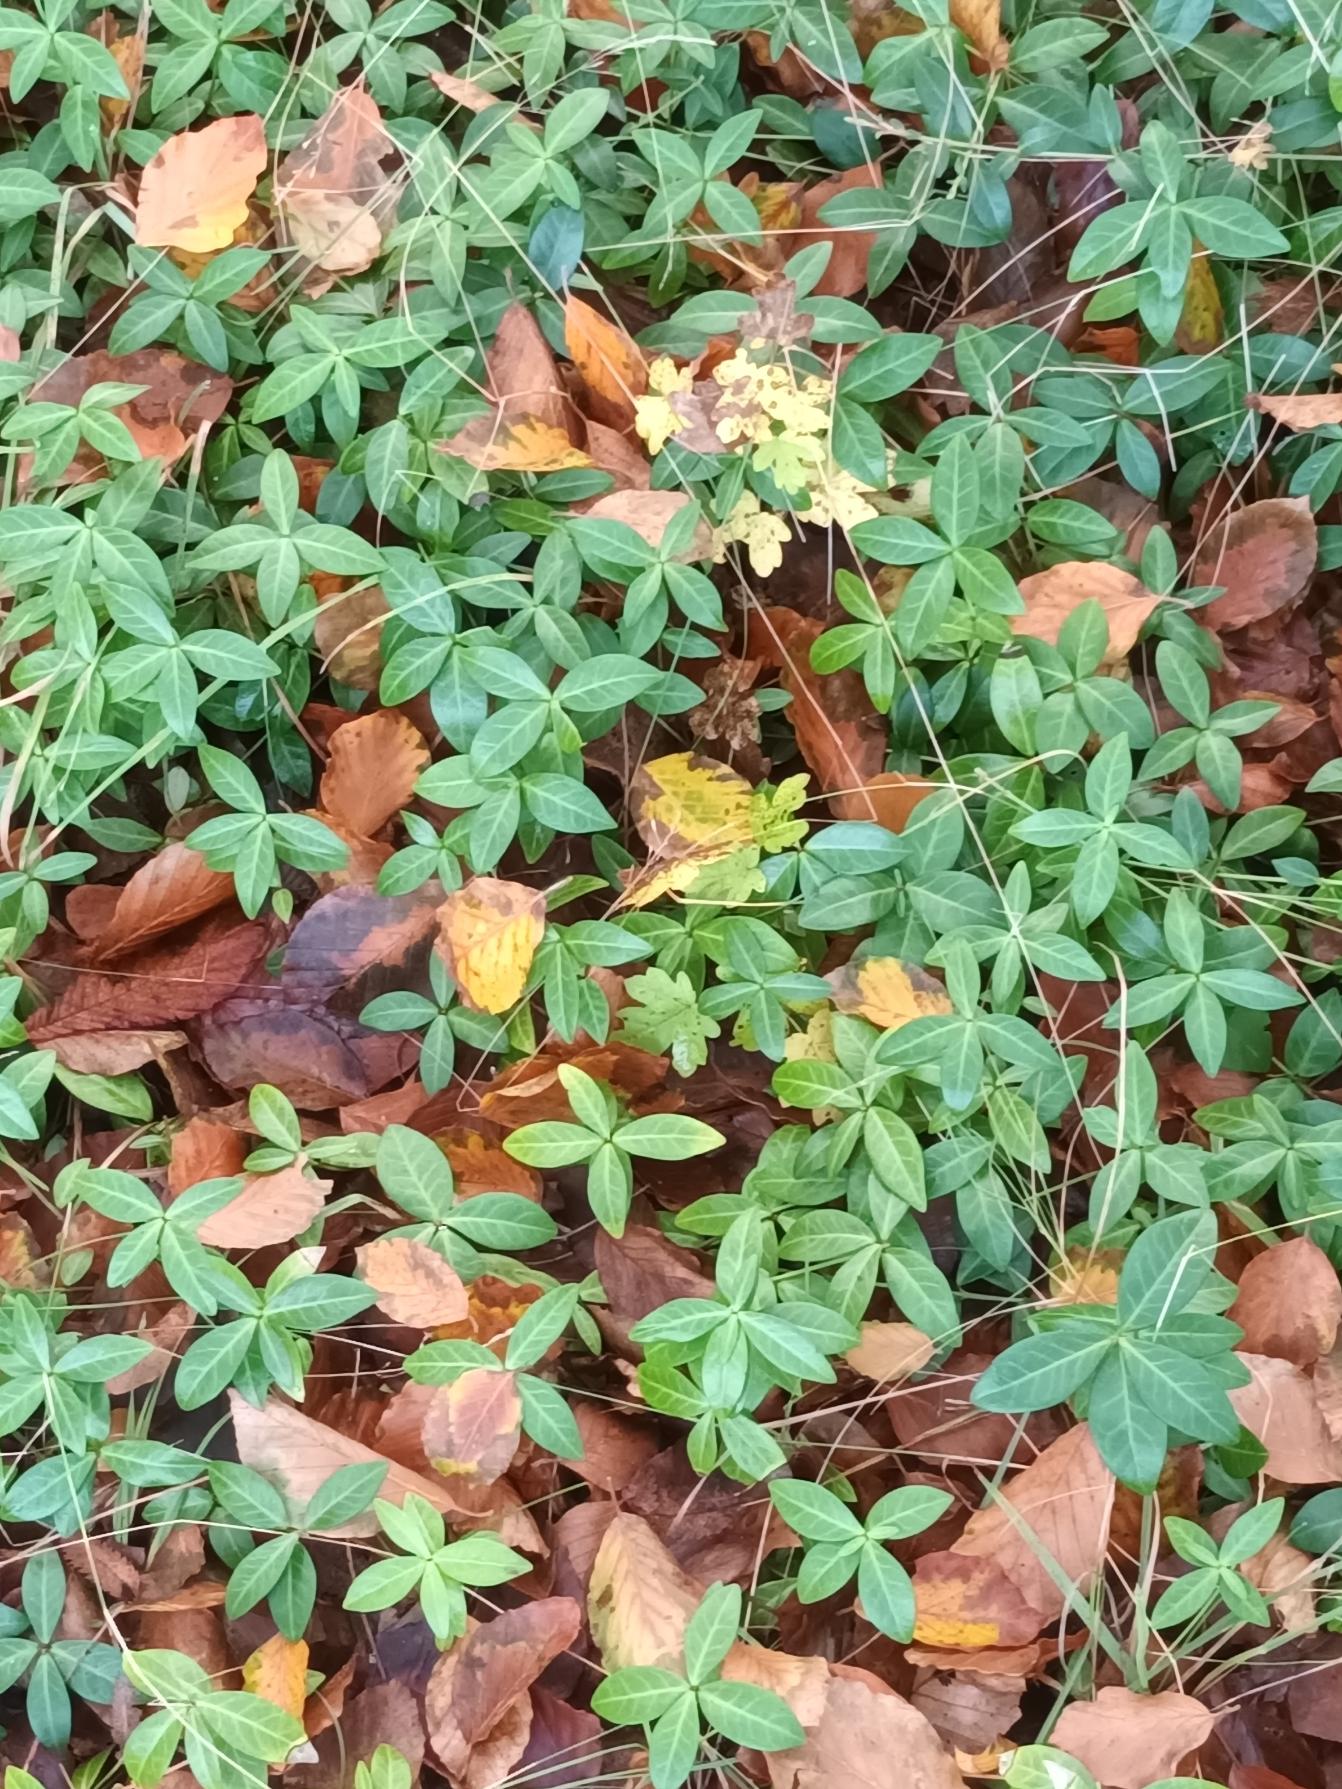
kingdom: Plantae
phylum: Tracheophyta
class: Magnoliopsida
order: Gentianales
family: Apocynaceae
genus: Vinca
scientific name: Vinca minor
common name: Liden singrøn
